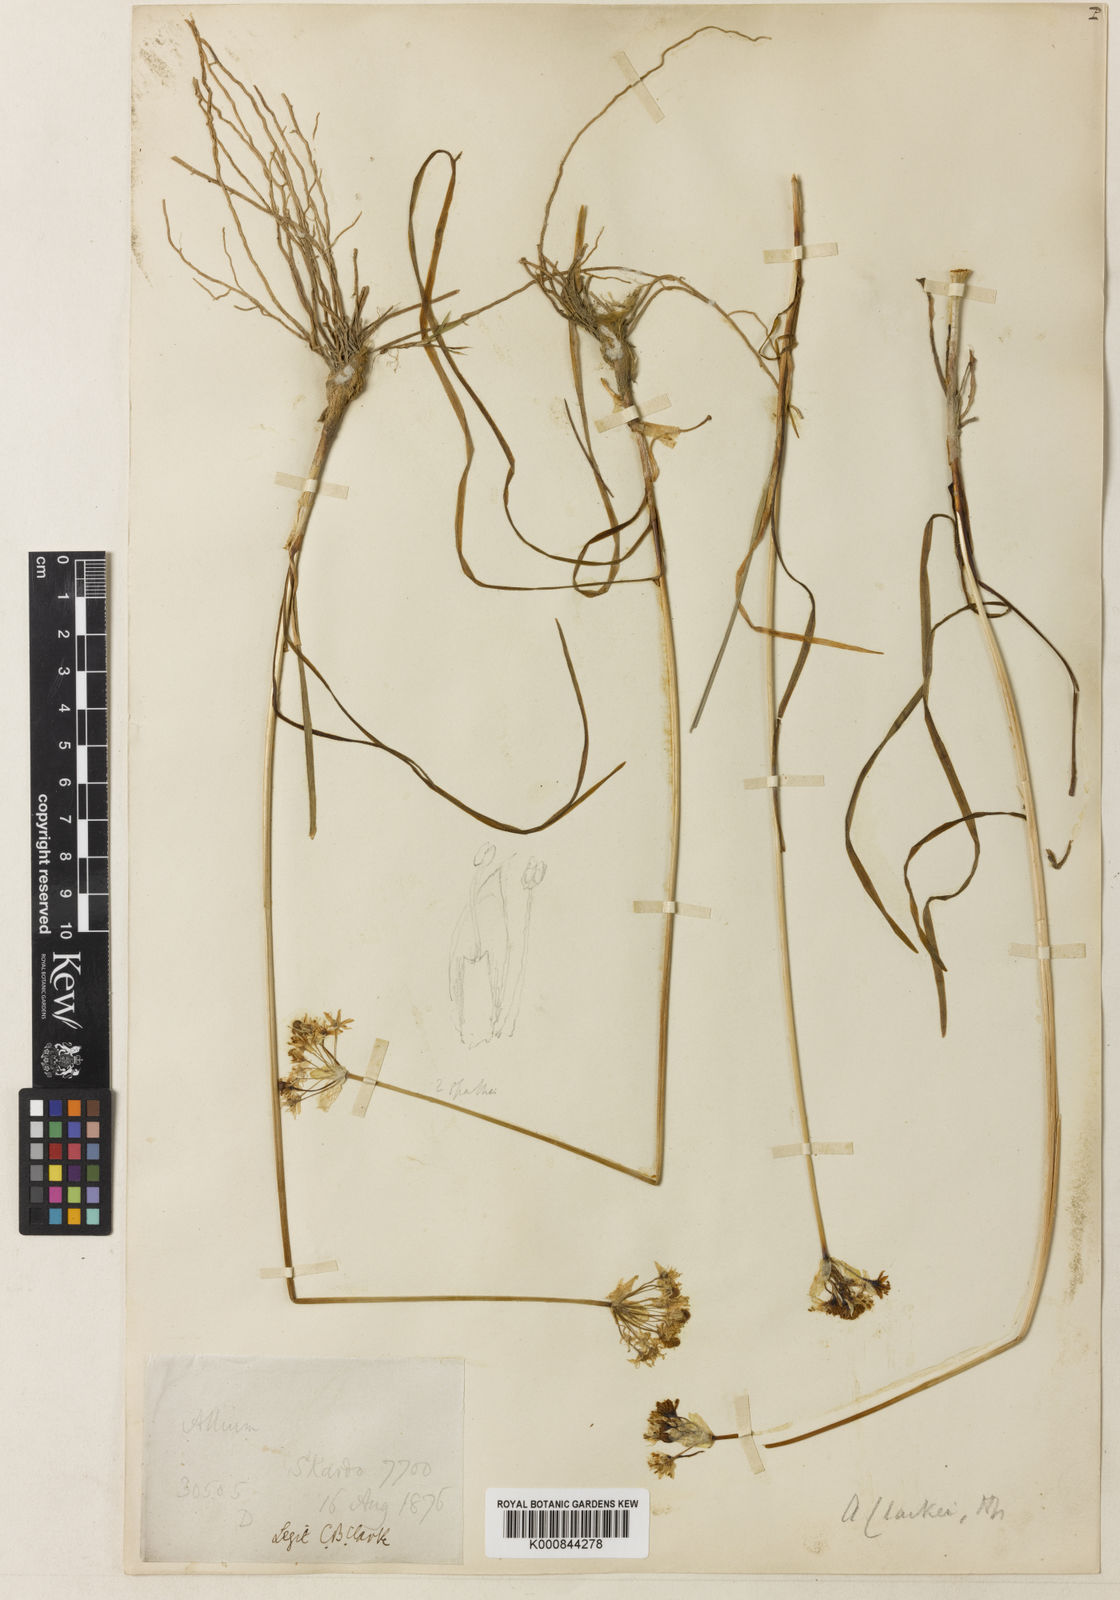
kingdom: Plantae
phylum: Tracheophyta
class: Liliopsida
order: Asparagales
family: Amaryllidaceae
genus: Allium
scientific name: Allium tuberosum
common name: Chinese chives
